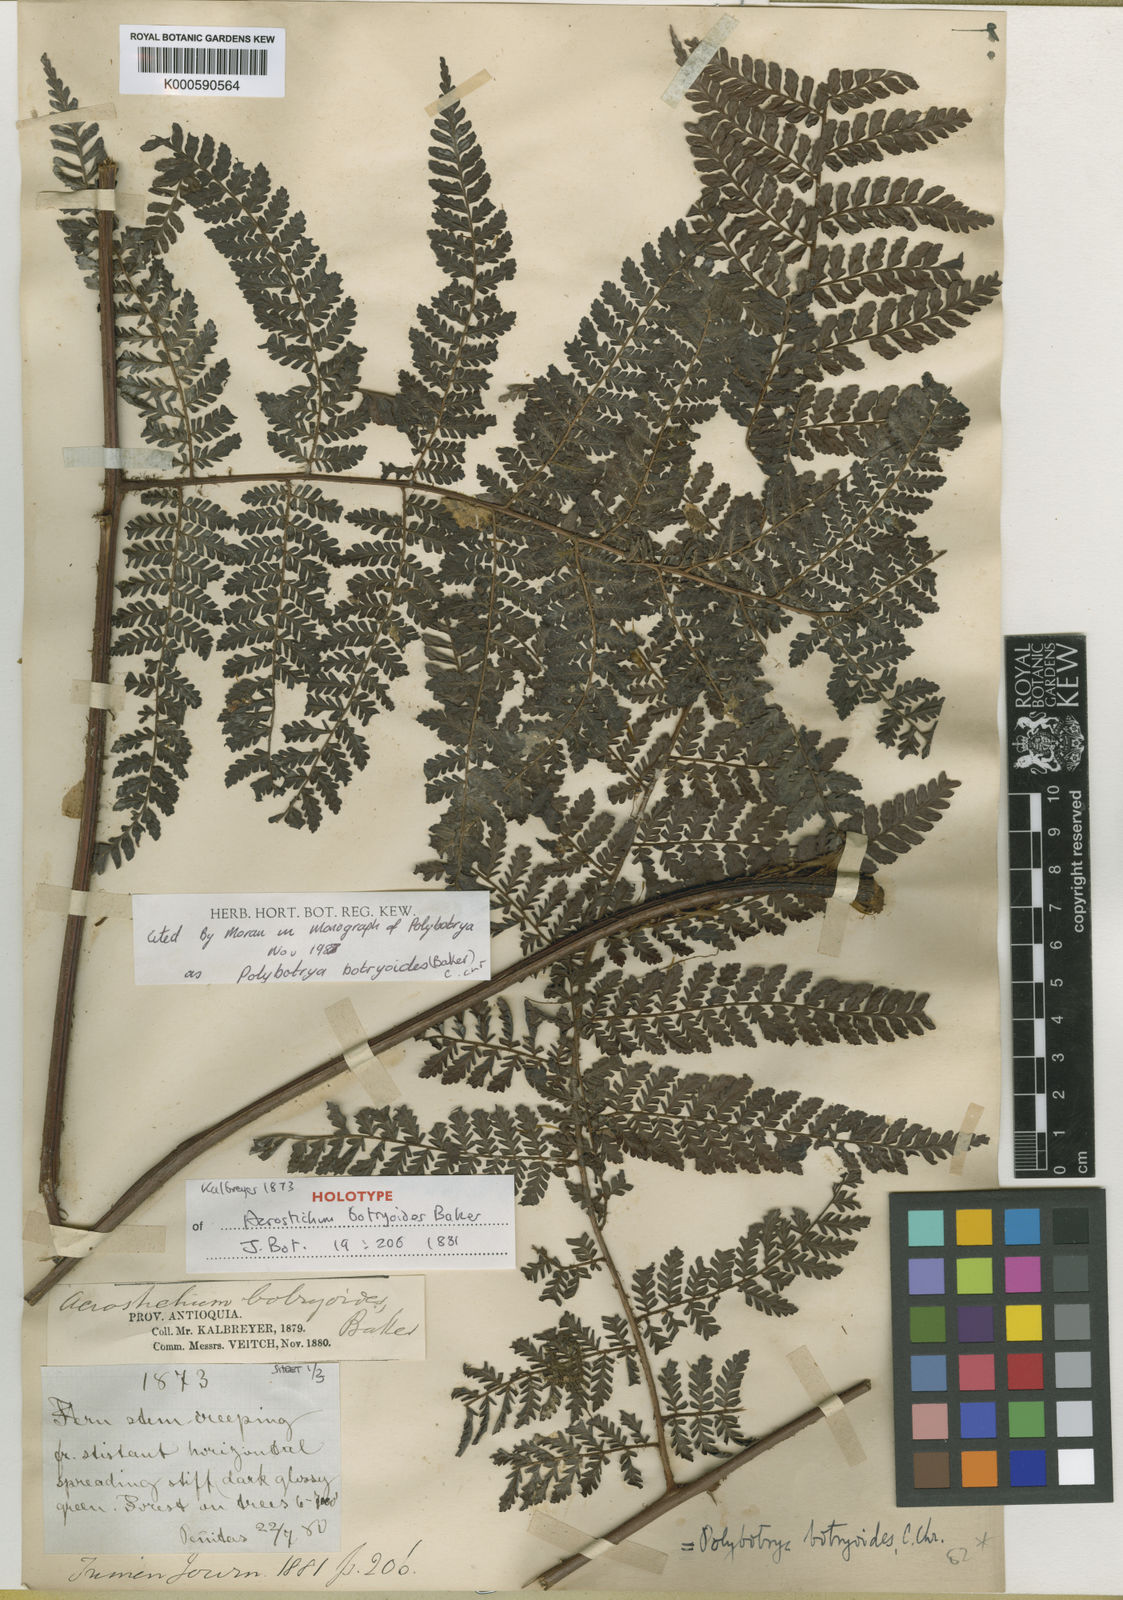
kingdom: Plantae
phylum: Tracheophyta
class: Polypodiopsida
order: Polypodiales
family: Dryopteridaceae
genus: Polybotrya
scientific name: Polybotrya botryoides
